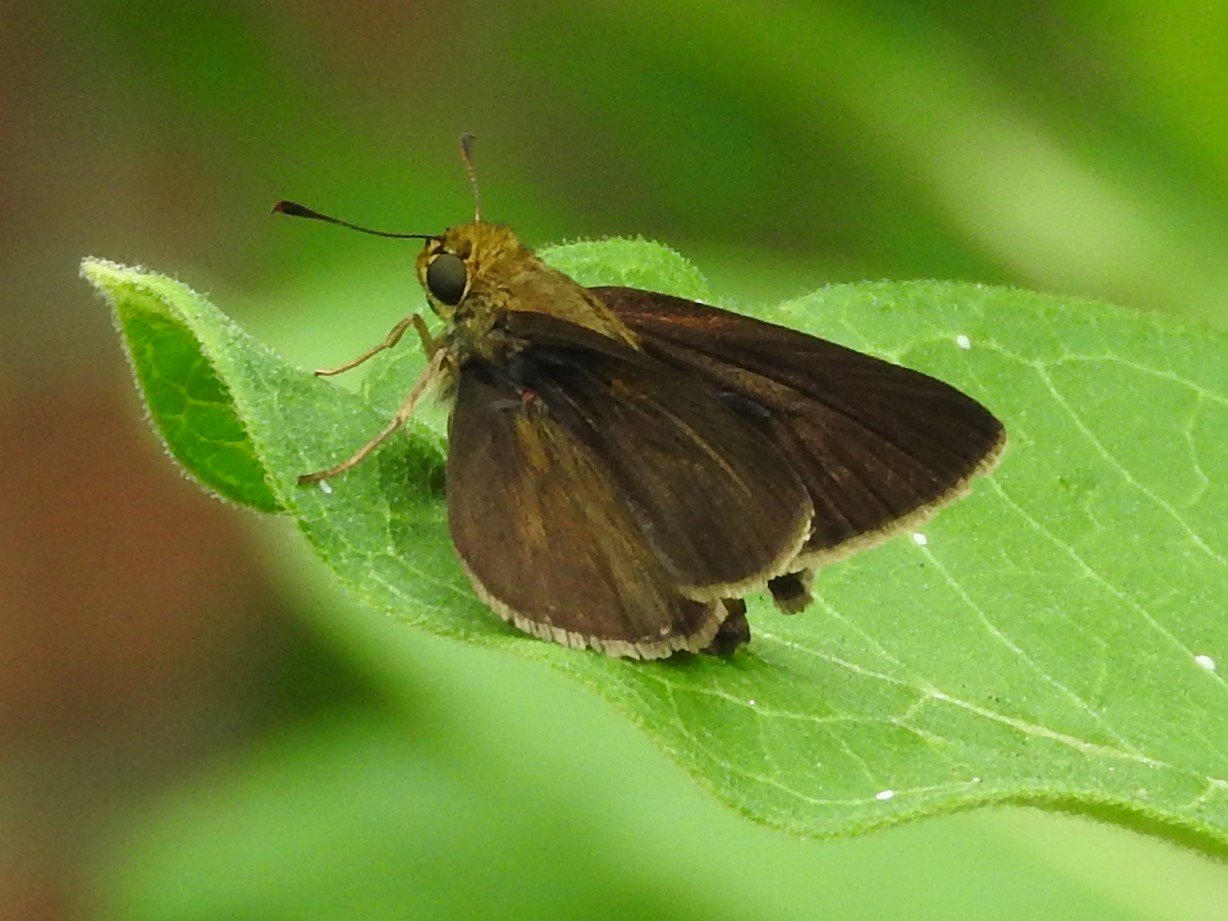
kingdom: Animalia
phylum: Arthropoda
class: Insecta
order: Lepidoptera
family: Hesperiidae
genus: Euphyes
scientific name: Euphyes vestris
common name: Dun Skipper
